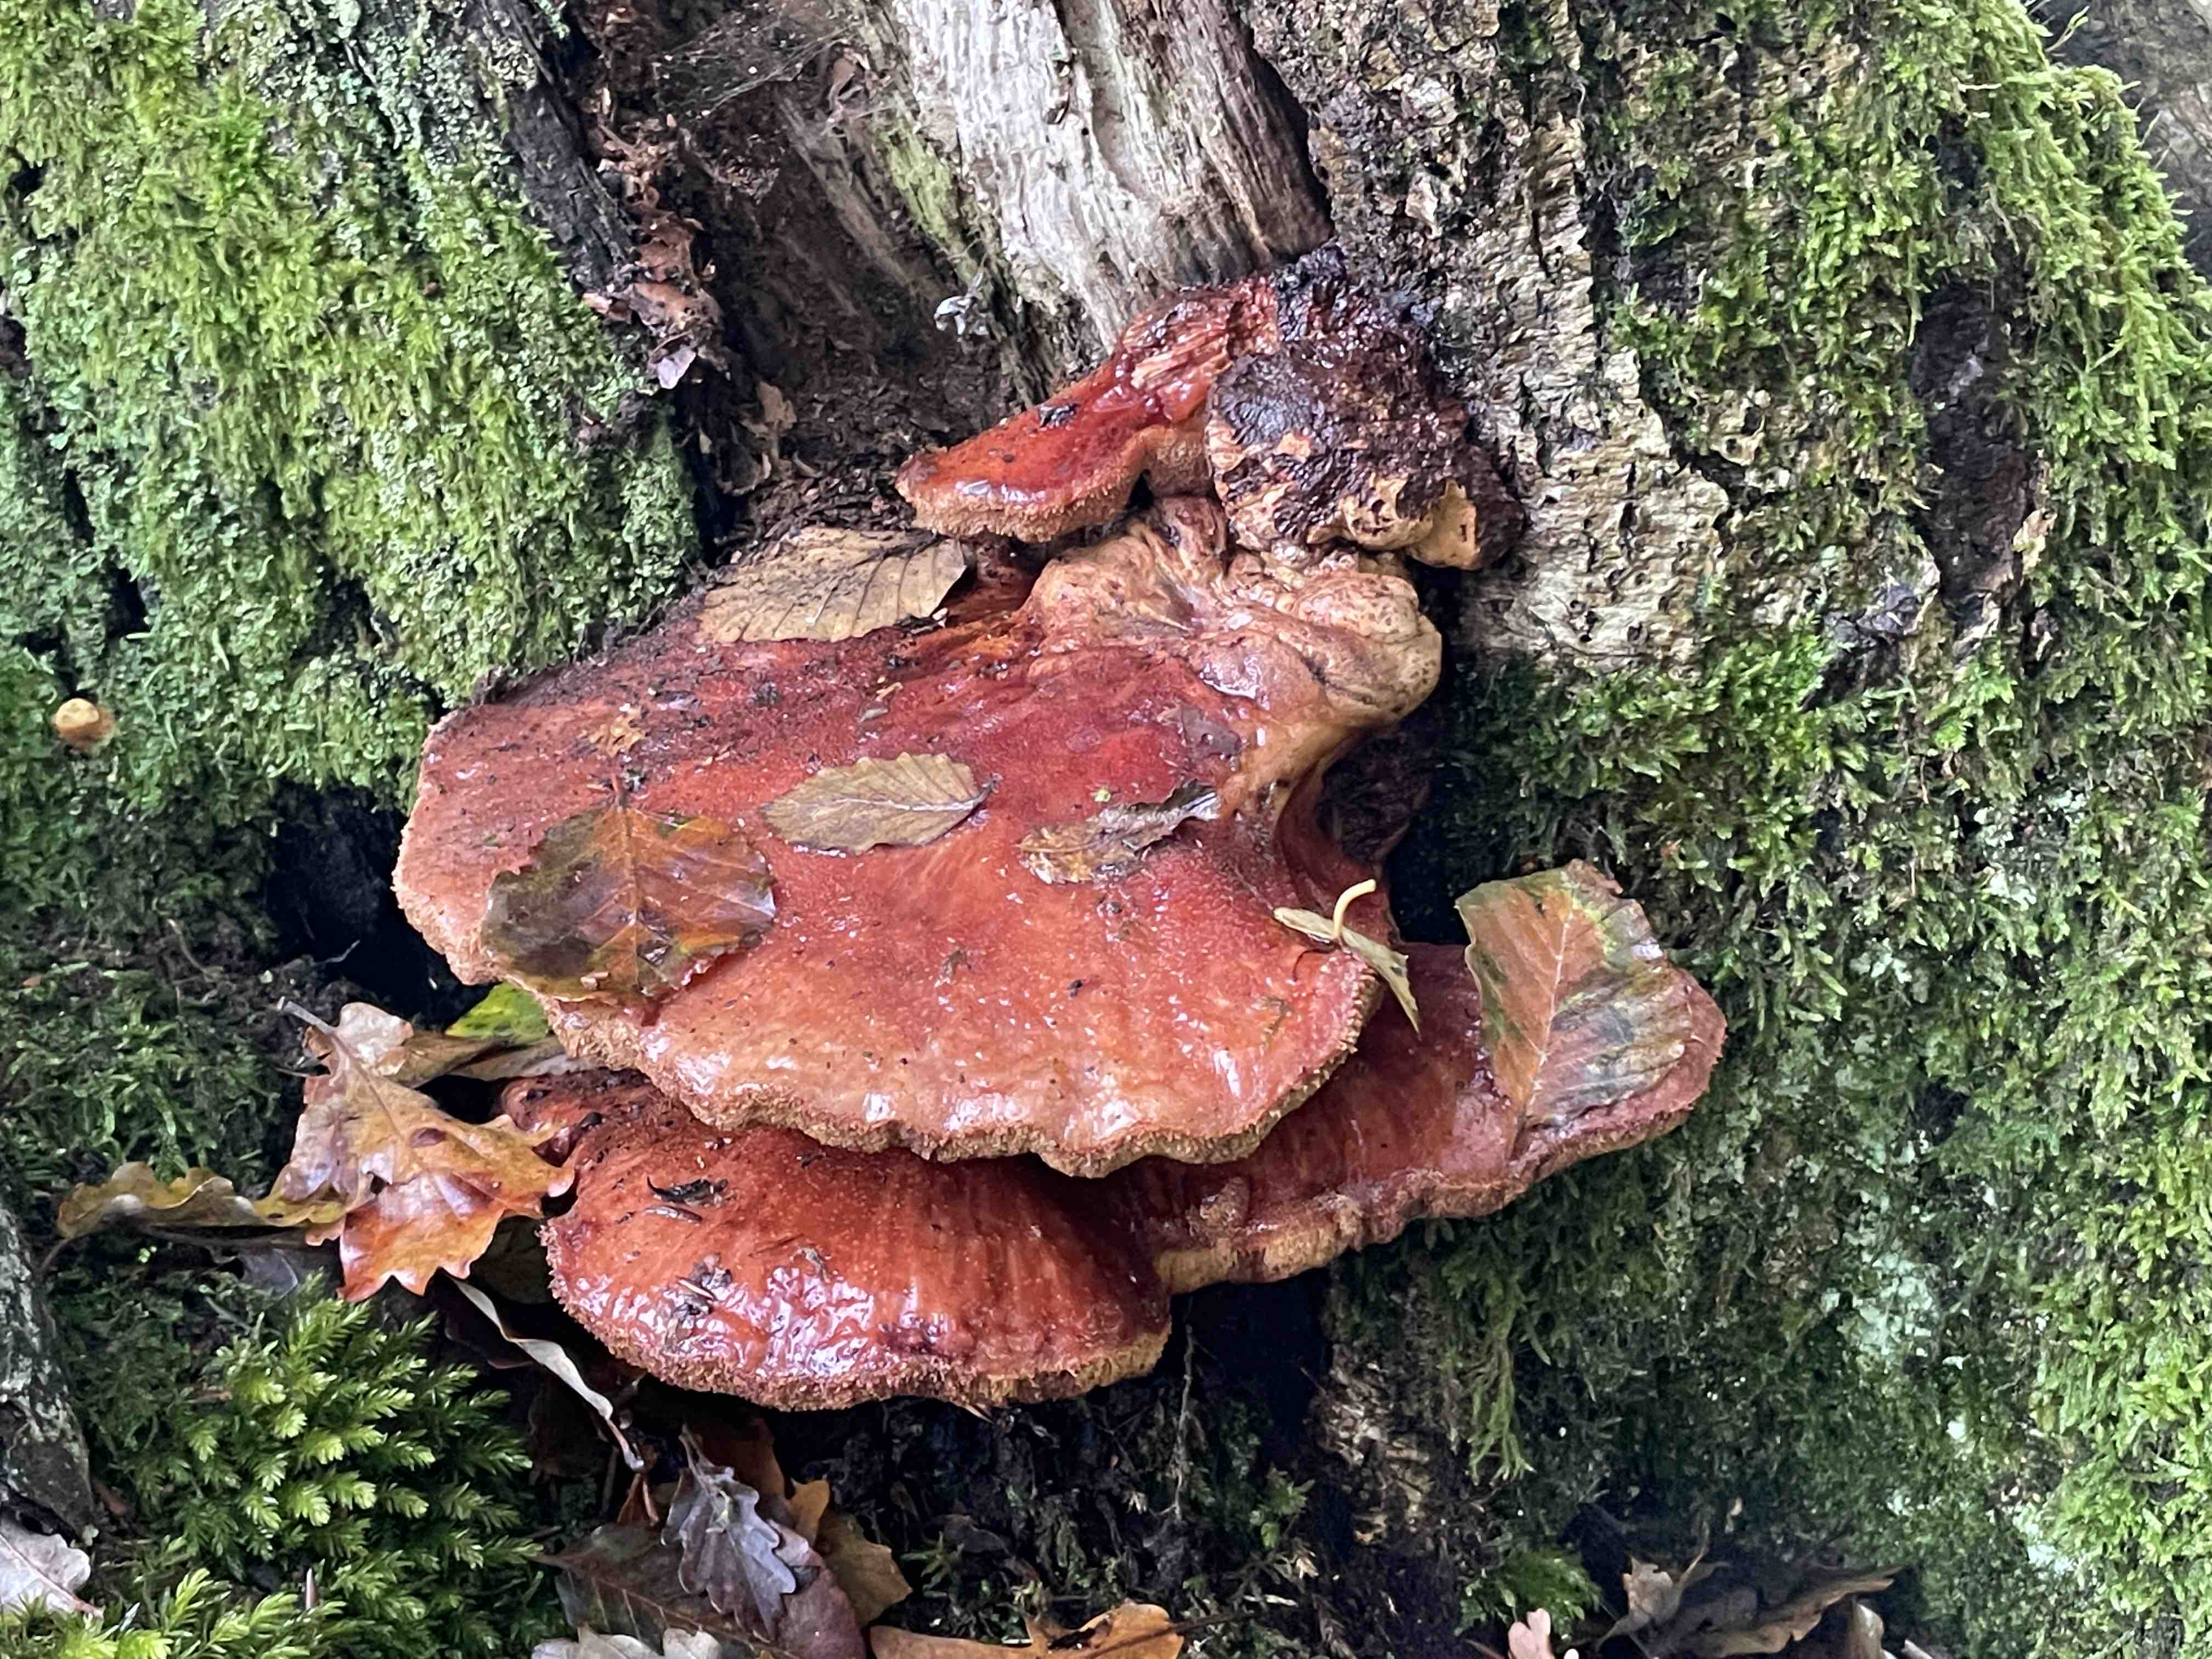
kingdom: Fungi
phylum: Basidiomycota
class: Agaricomycetes
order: Agaricales
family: Fistulinaceae
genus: Fistulina
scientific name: Fistulina hepatica
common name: oksetunge
